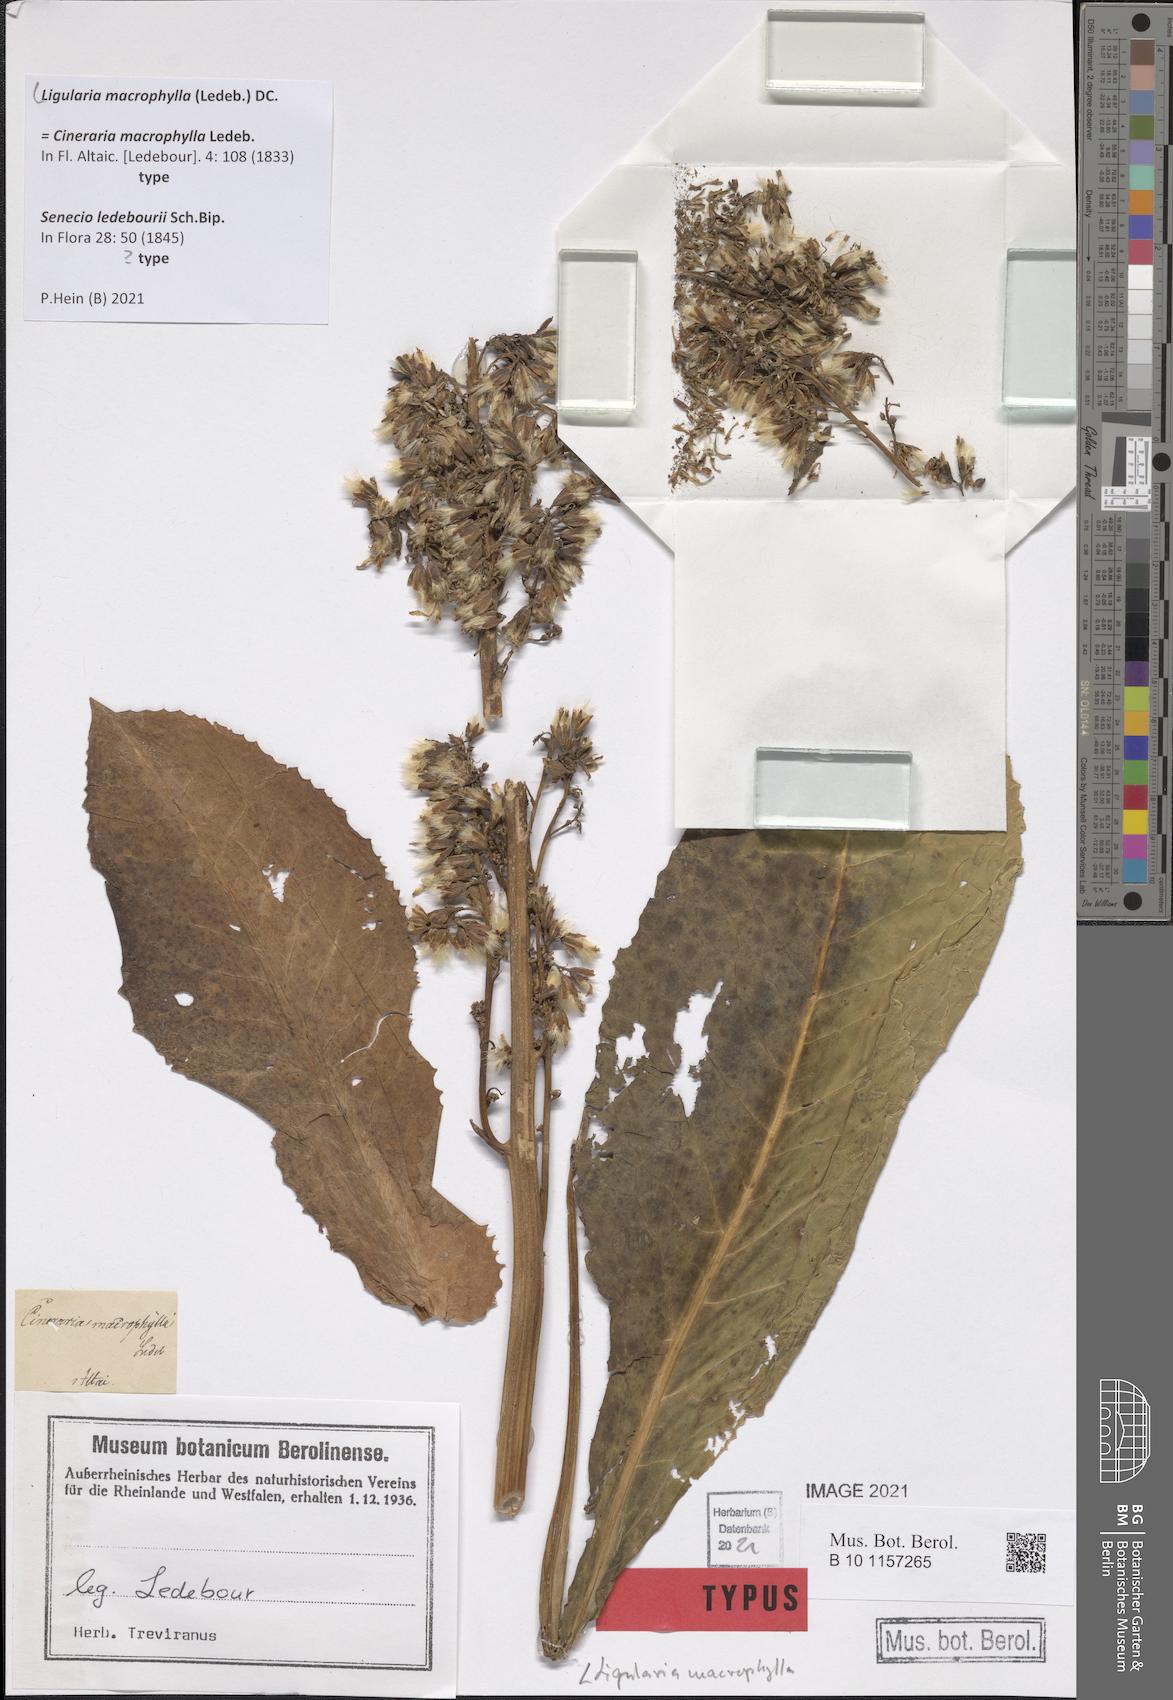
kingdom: Plantae
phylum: Tracheophyta
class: Magnoliopsida
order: Asterales
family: Asteraceae
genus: Ligularia
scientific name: Ligularia macrophylla
